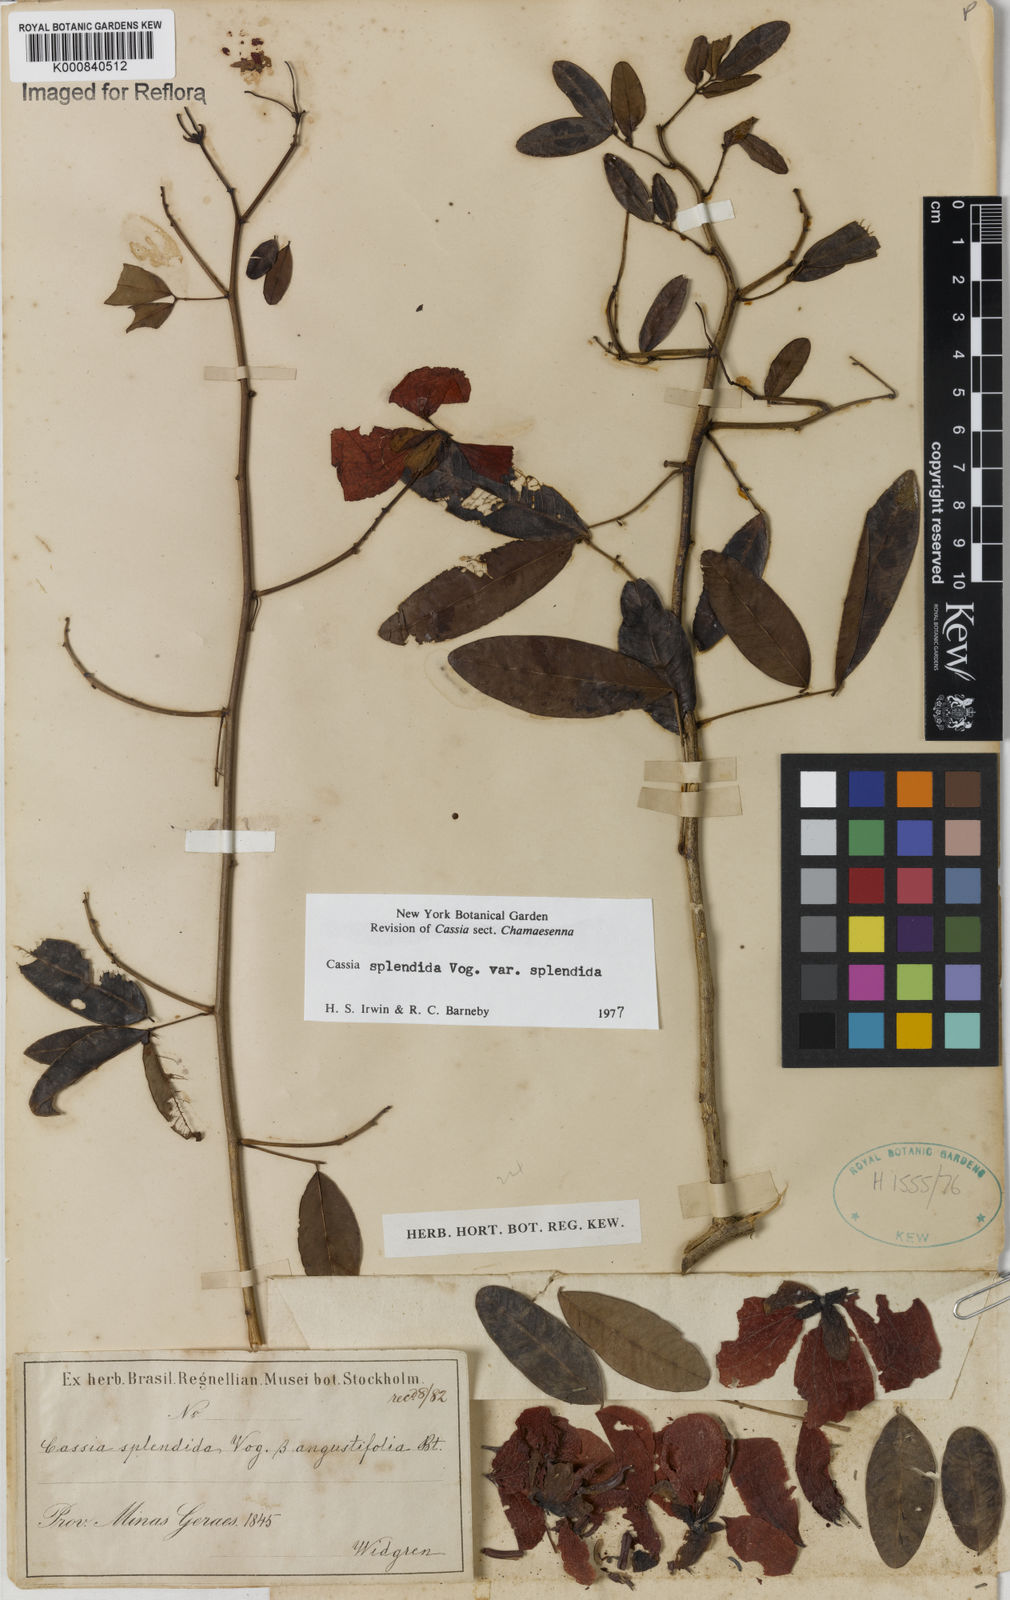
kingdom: Plantae
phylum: Tracheophyta
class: Magnoliopsida
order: Fabales
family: Fabaceae
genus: Senna
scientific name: Senna splendida
